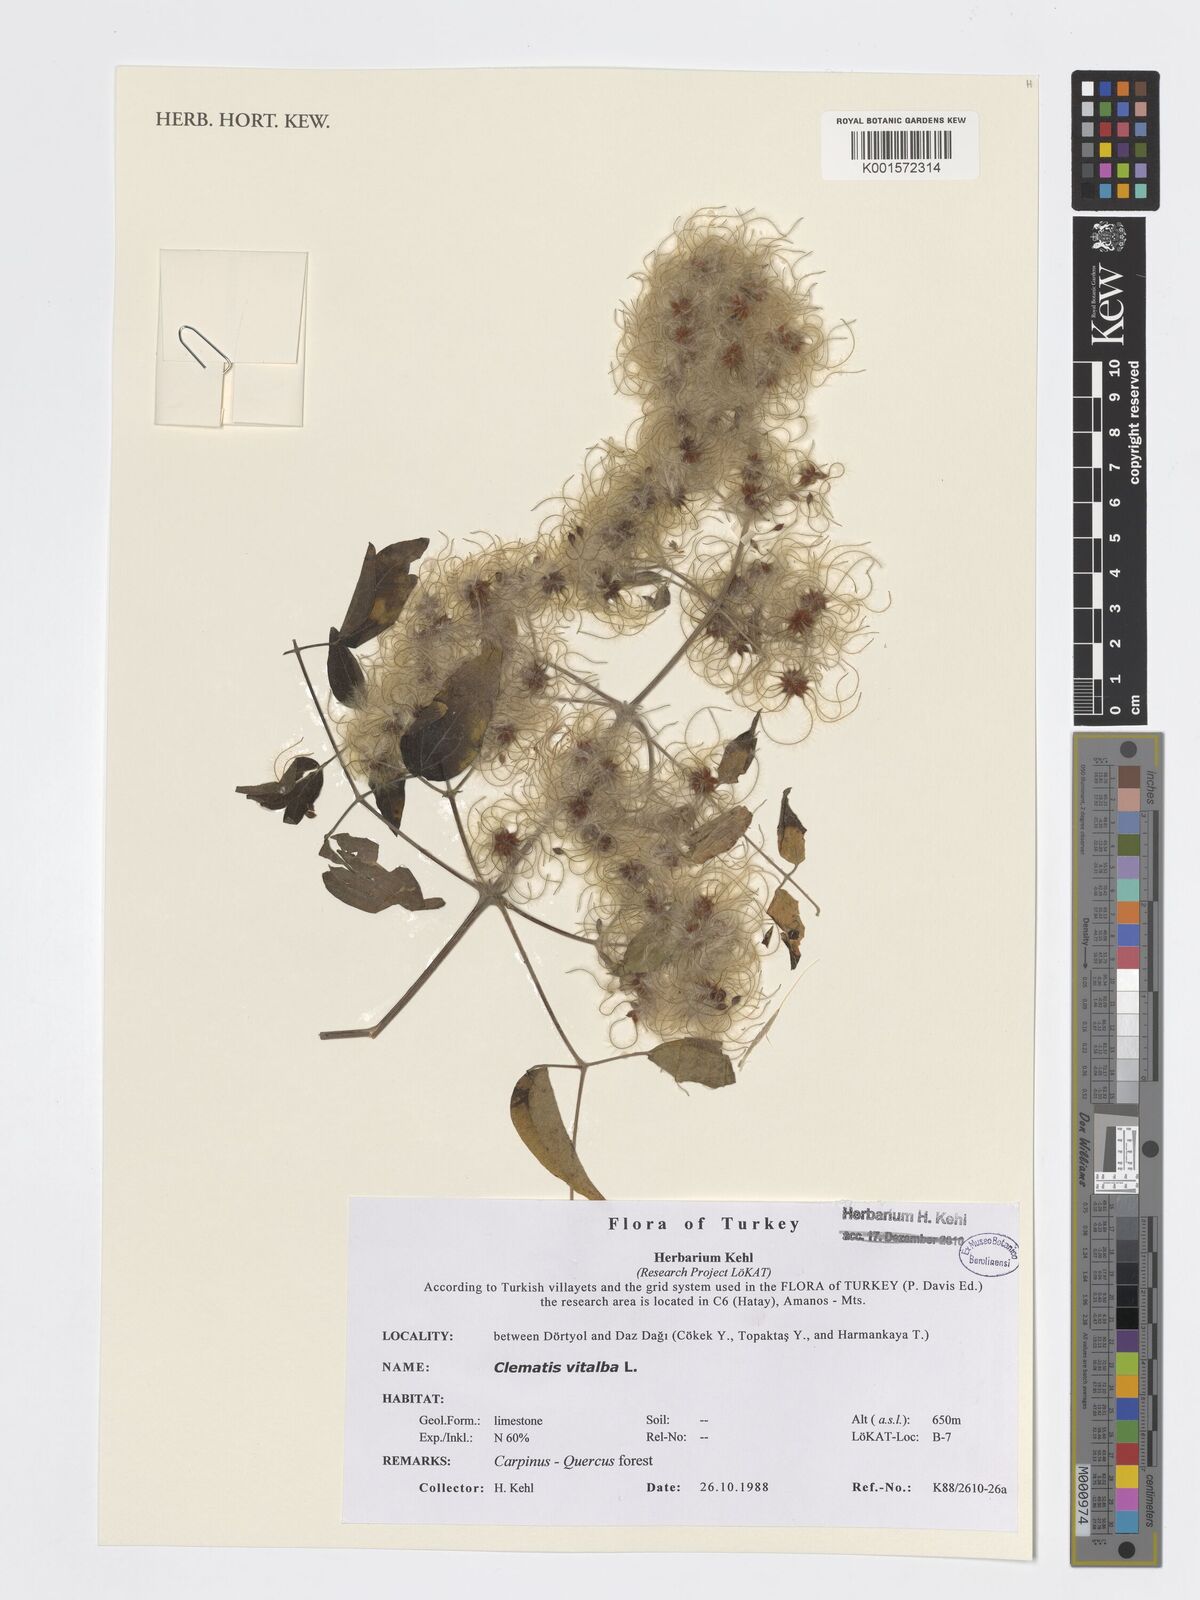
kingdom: Plantae
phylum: Tracheophyta
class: Magnoliopsida
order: Ranunculales
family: Ranunculaceae
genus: Clematis
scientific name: Clematis vitalba
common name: Evergreen clematis
